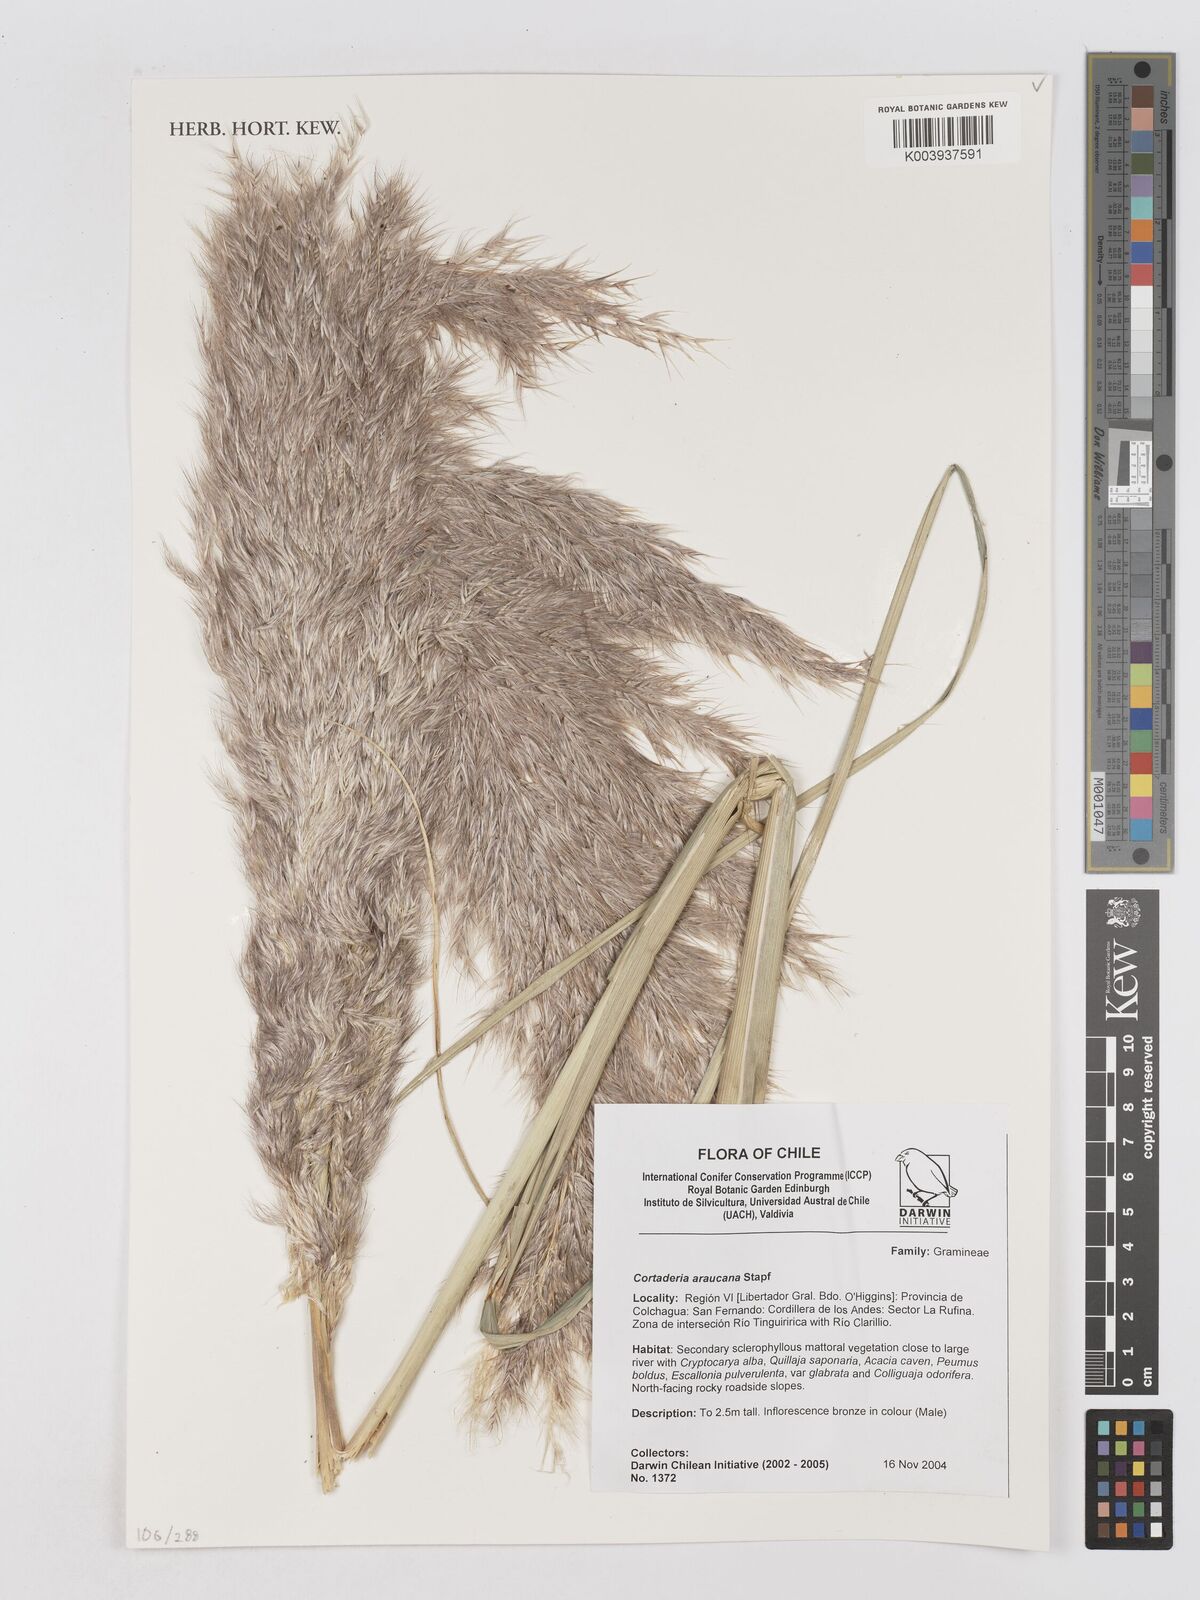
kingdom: Plantae
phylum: Tracheophyta
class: Liliopsida
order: Poales
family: Poaceae
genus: Cortaderia
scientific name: Cortaderia araucana
